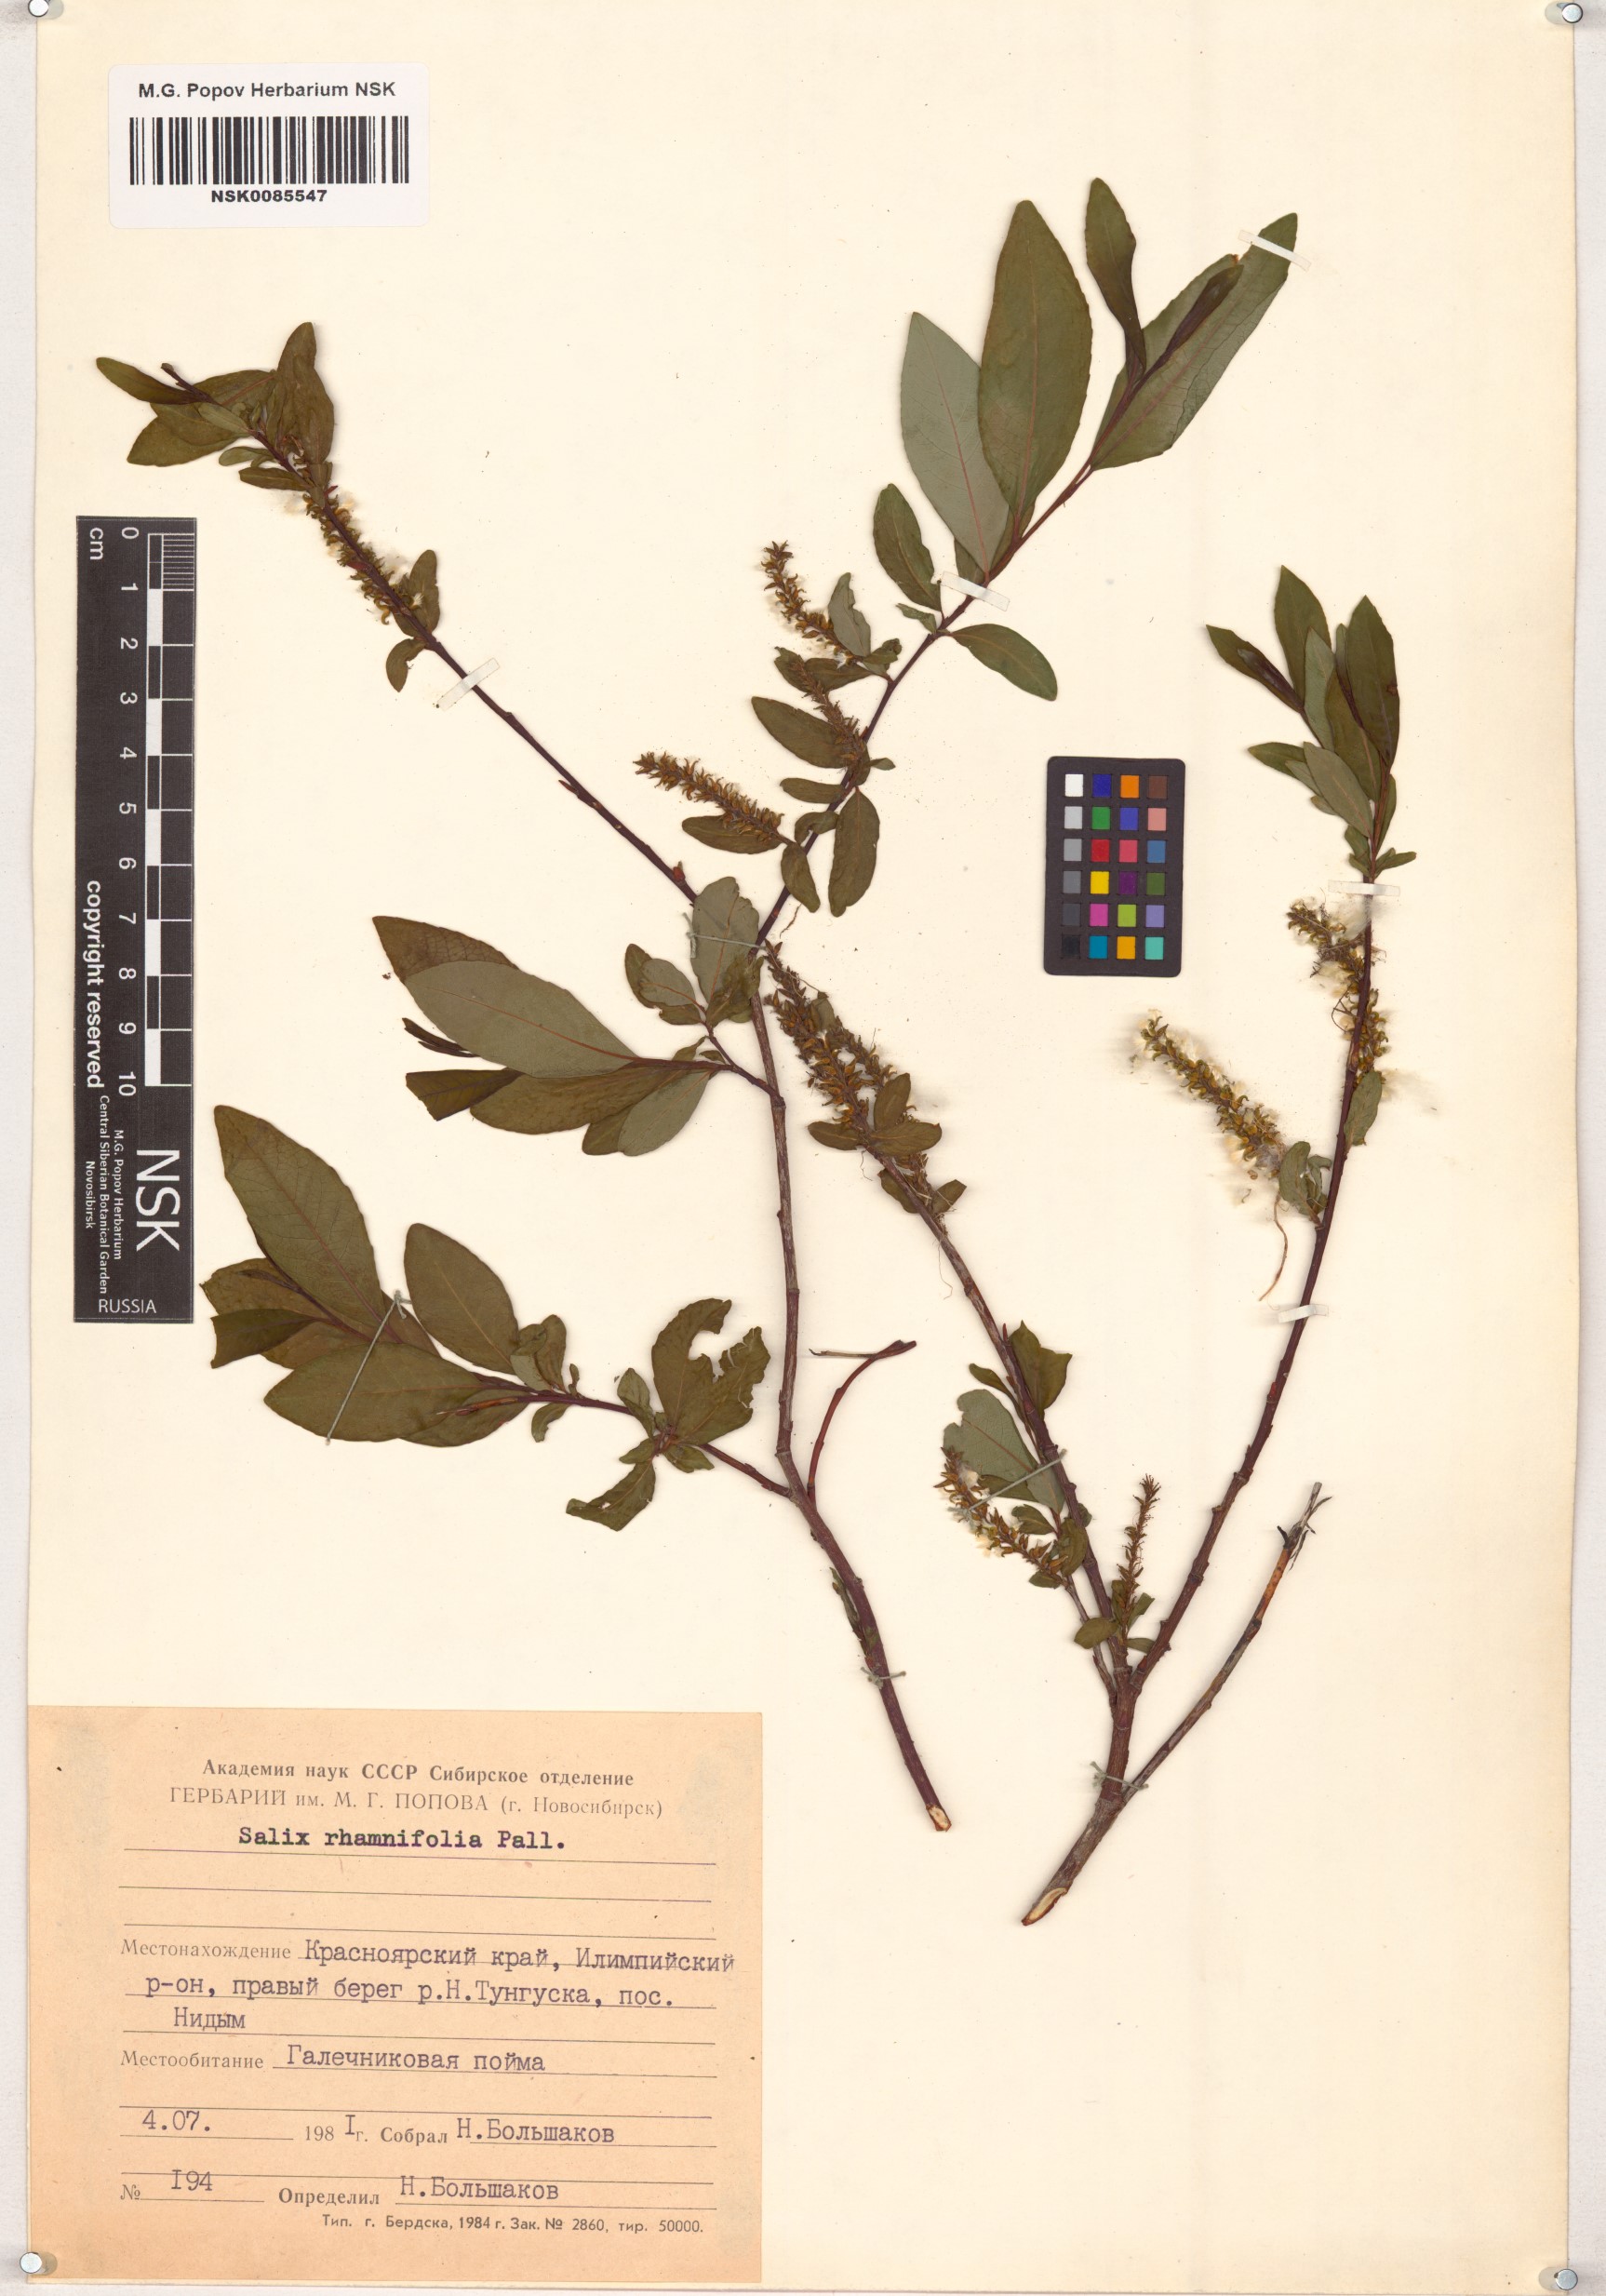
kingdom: Plantae
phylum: Tracheophyta
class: Magnoliopsida
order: Malpighiales
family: Salicaceae
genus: Salix
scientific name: Salix rhamnifolia
